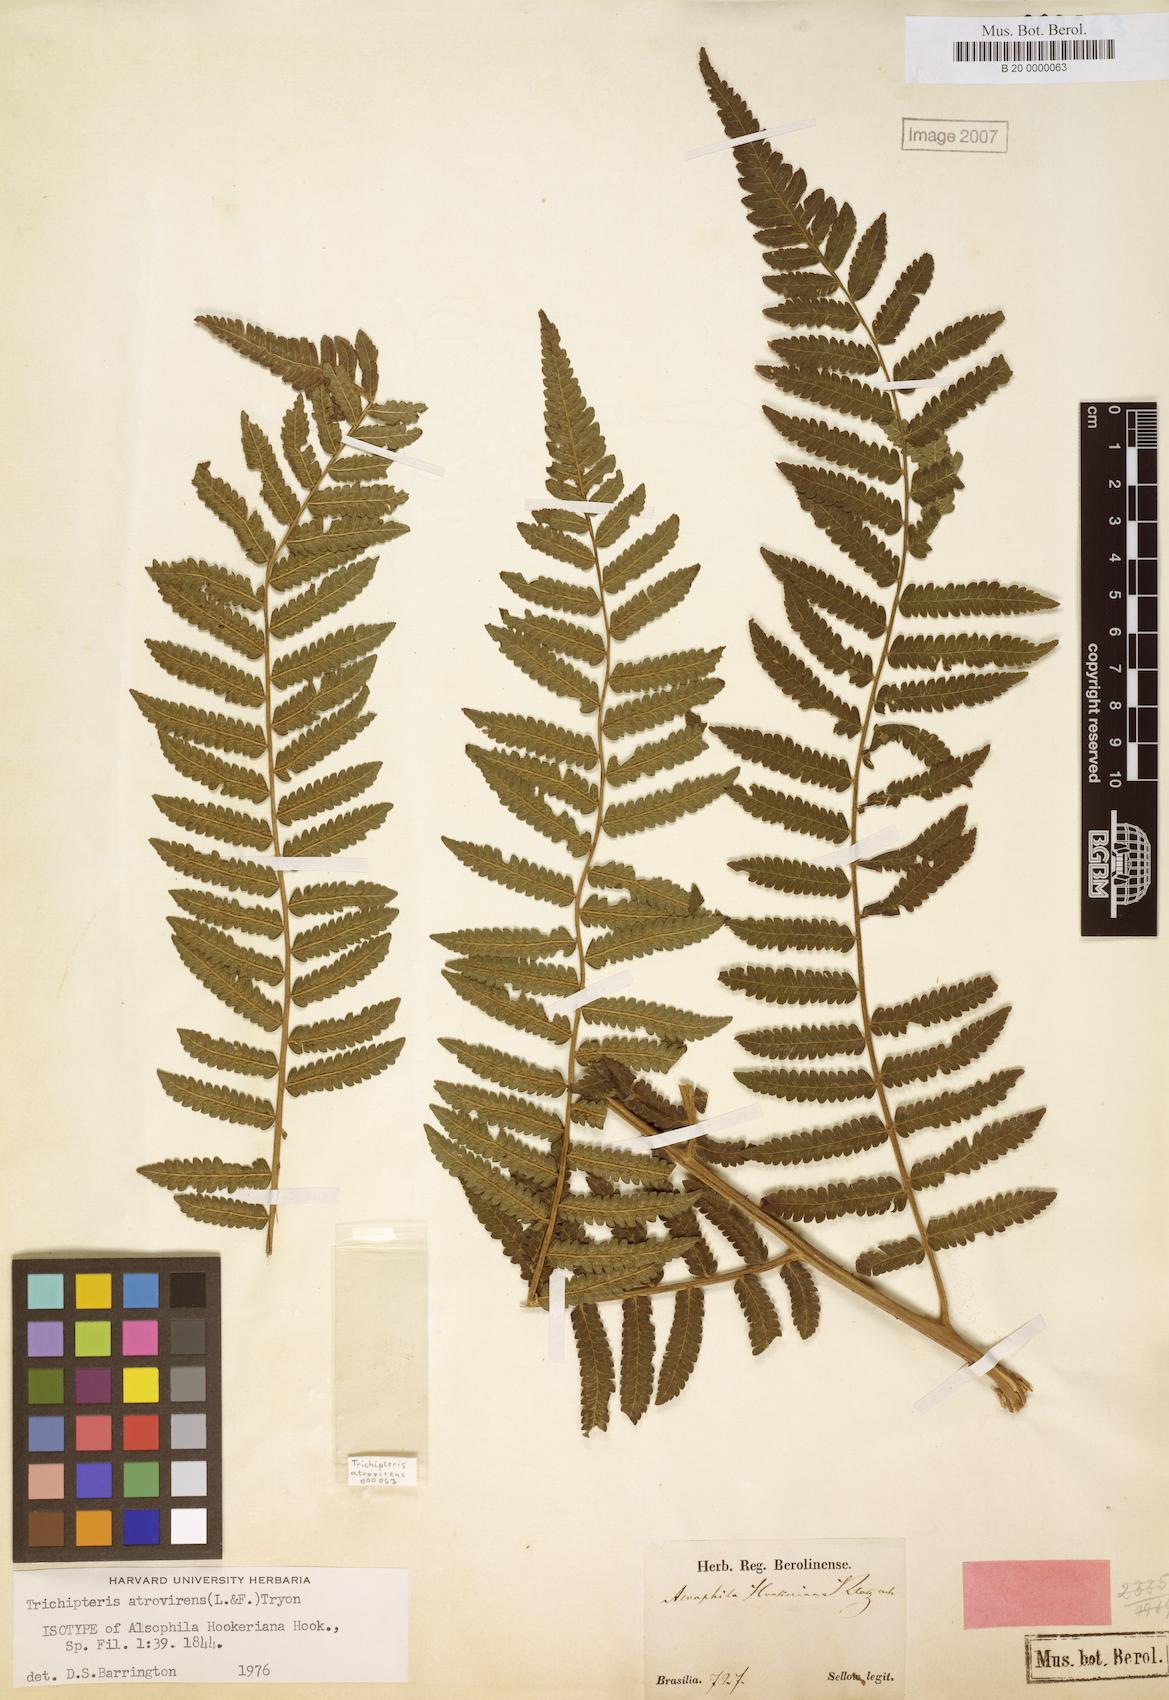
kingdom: Plantae
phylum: Tracheophyta
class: Polypodiopsida
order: Cyatheales
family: Cyatheaceae
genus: Cyathea
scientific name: Cyathea atrovirens
